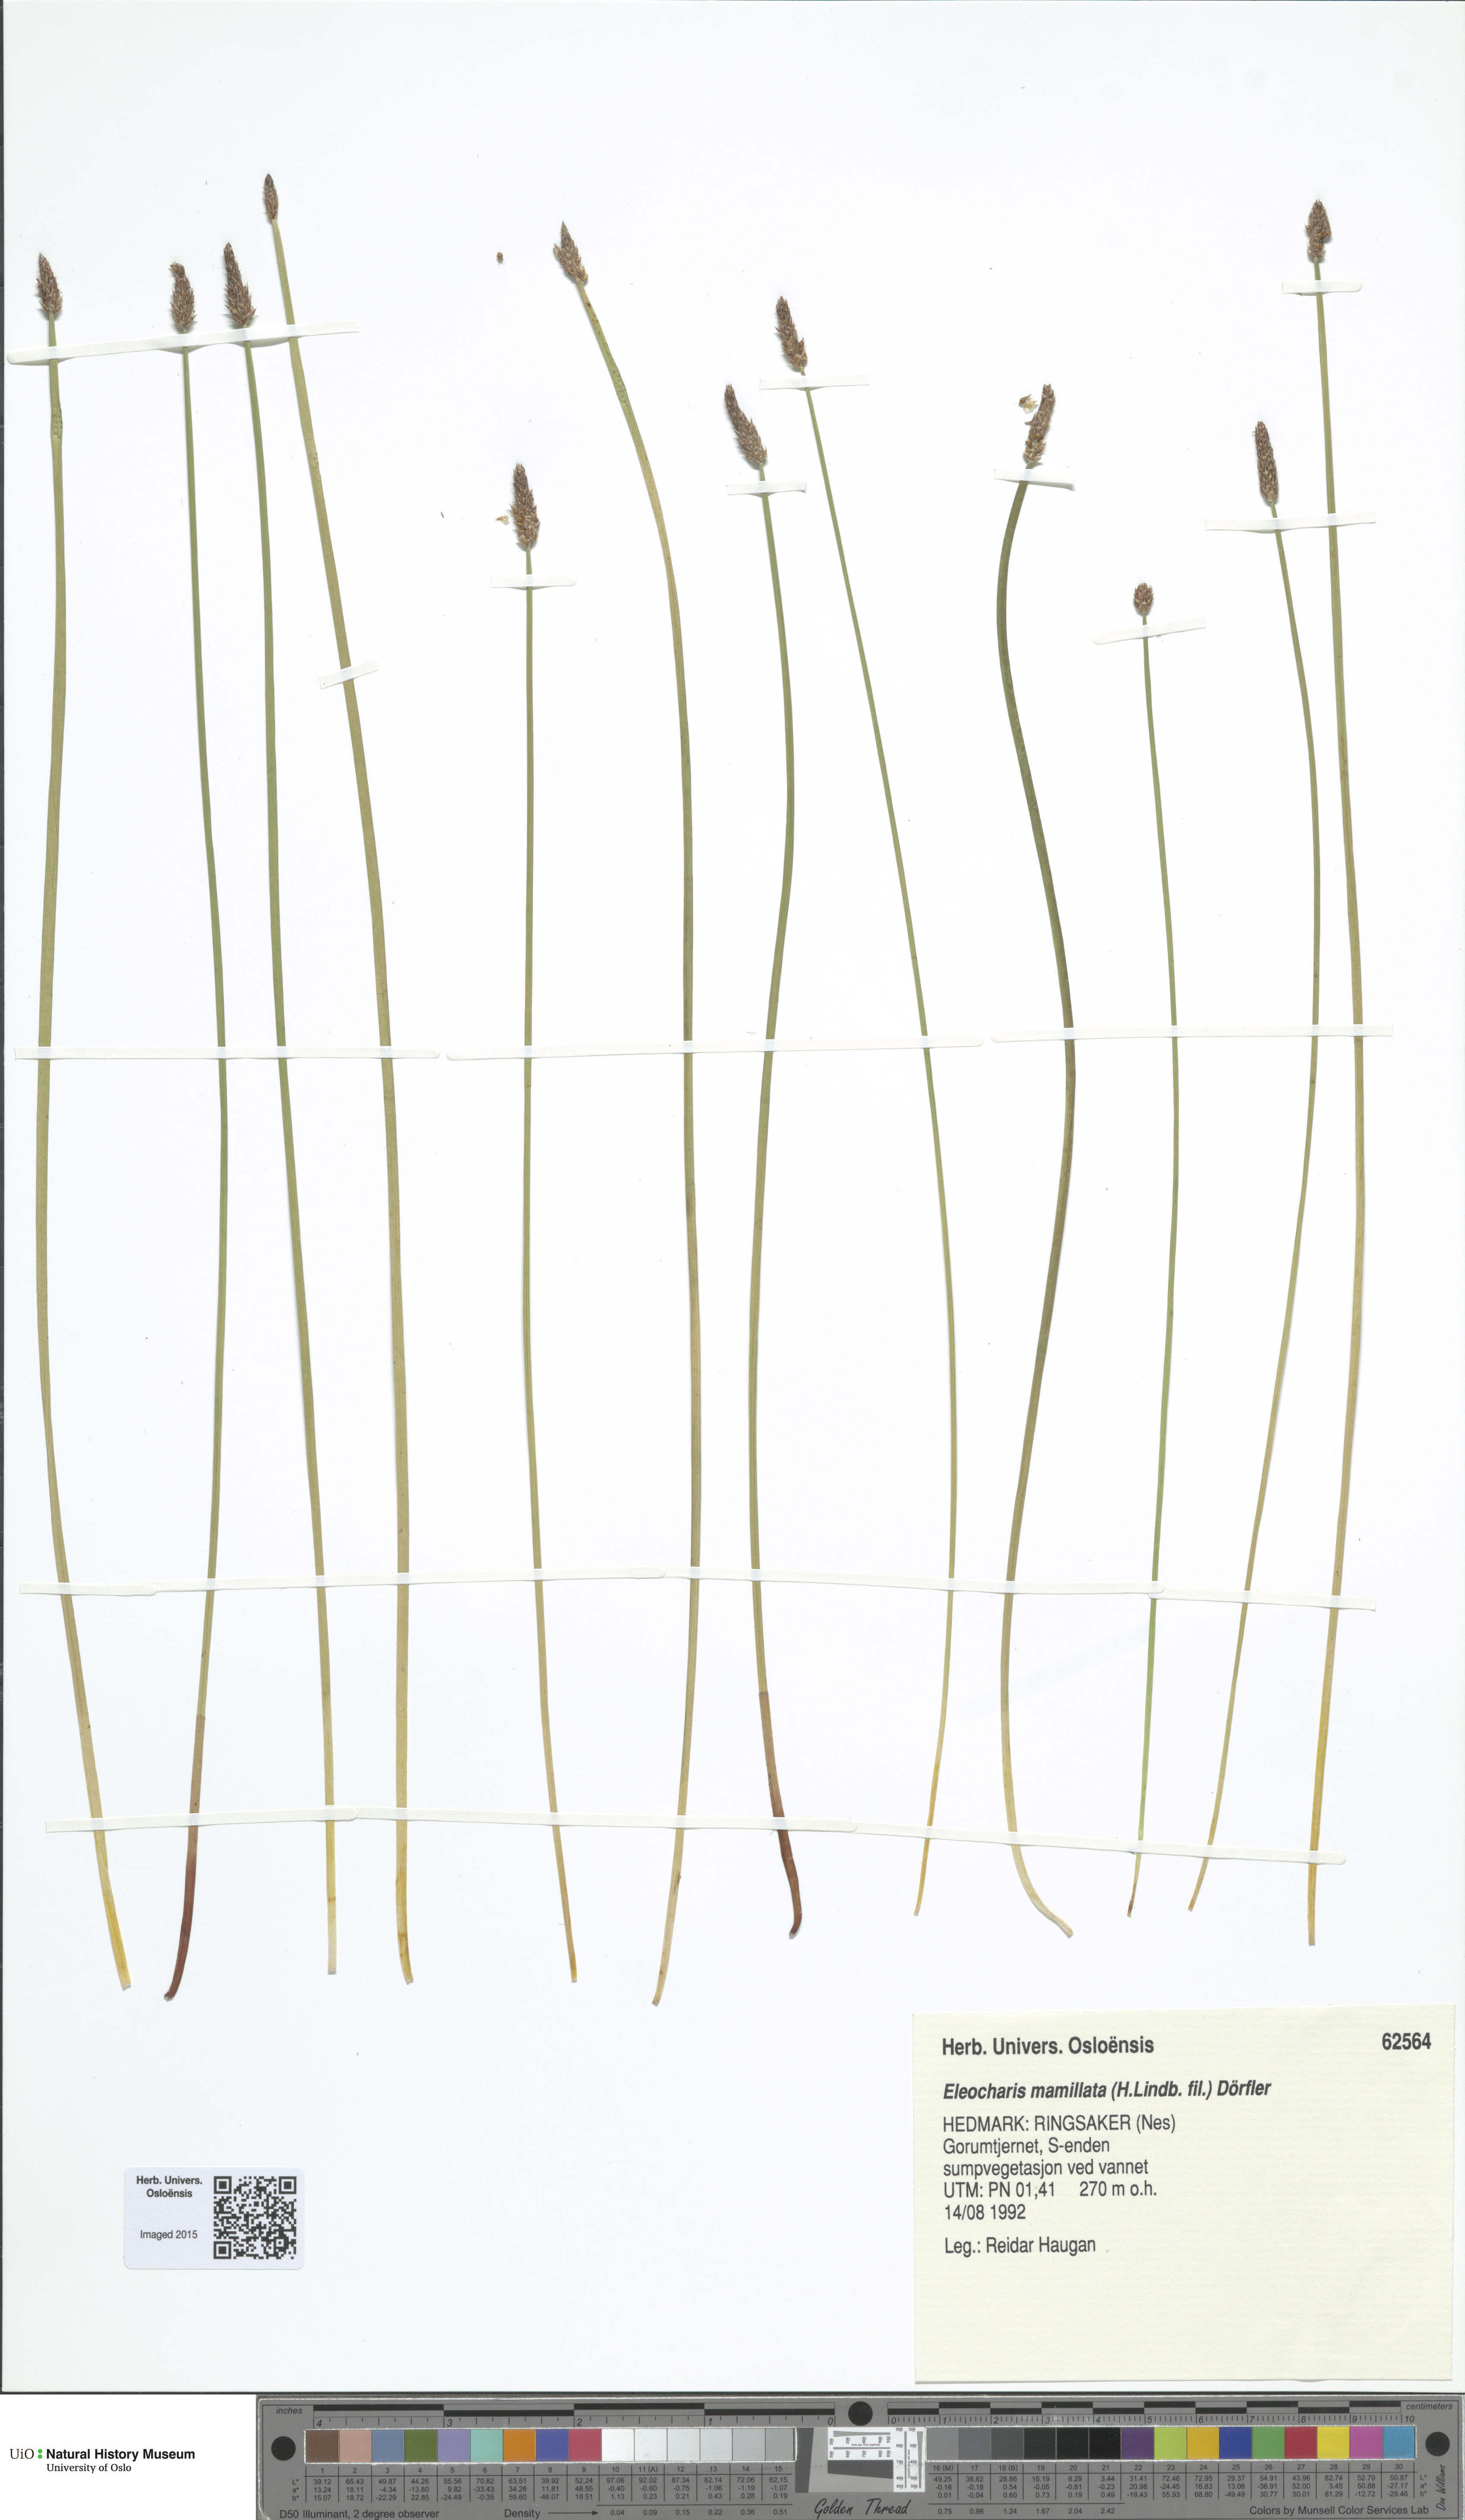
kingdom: Plantae
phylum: Tracheophyta
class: Liliopsida
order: Poales
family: Cyperaceae
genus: Eleocharis
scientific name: Eleocharis mamillata
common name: Northern spike-rush
